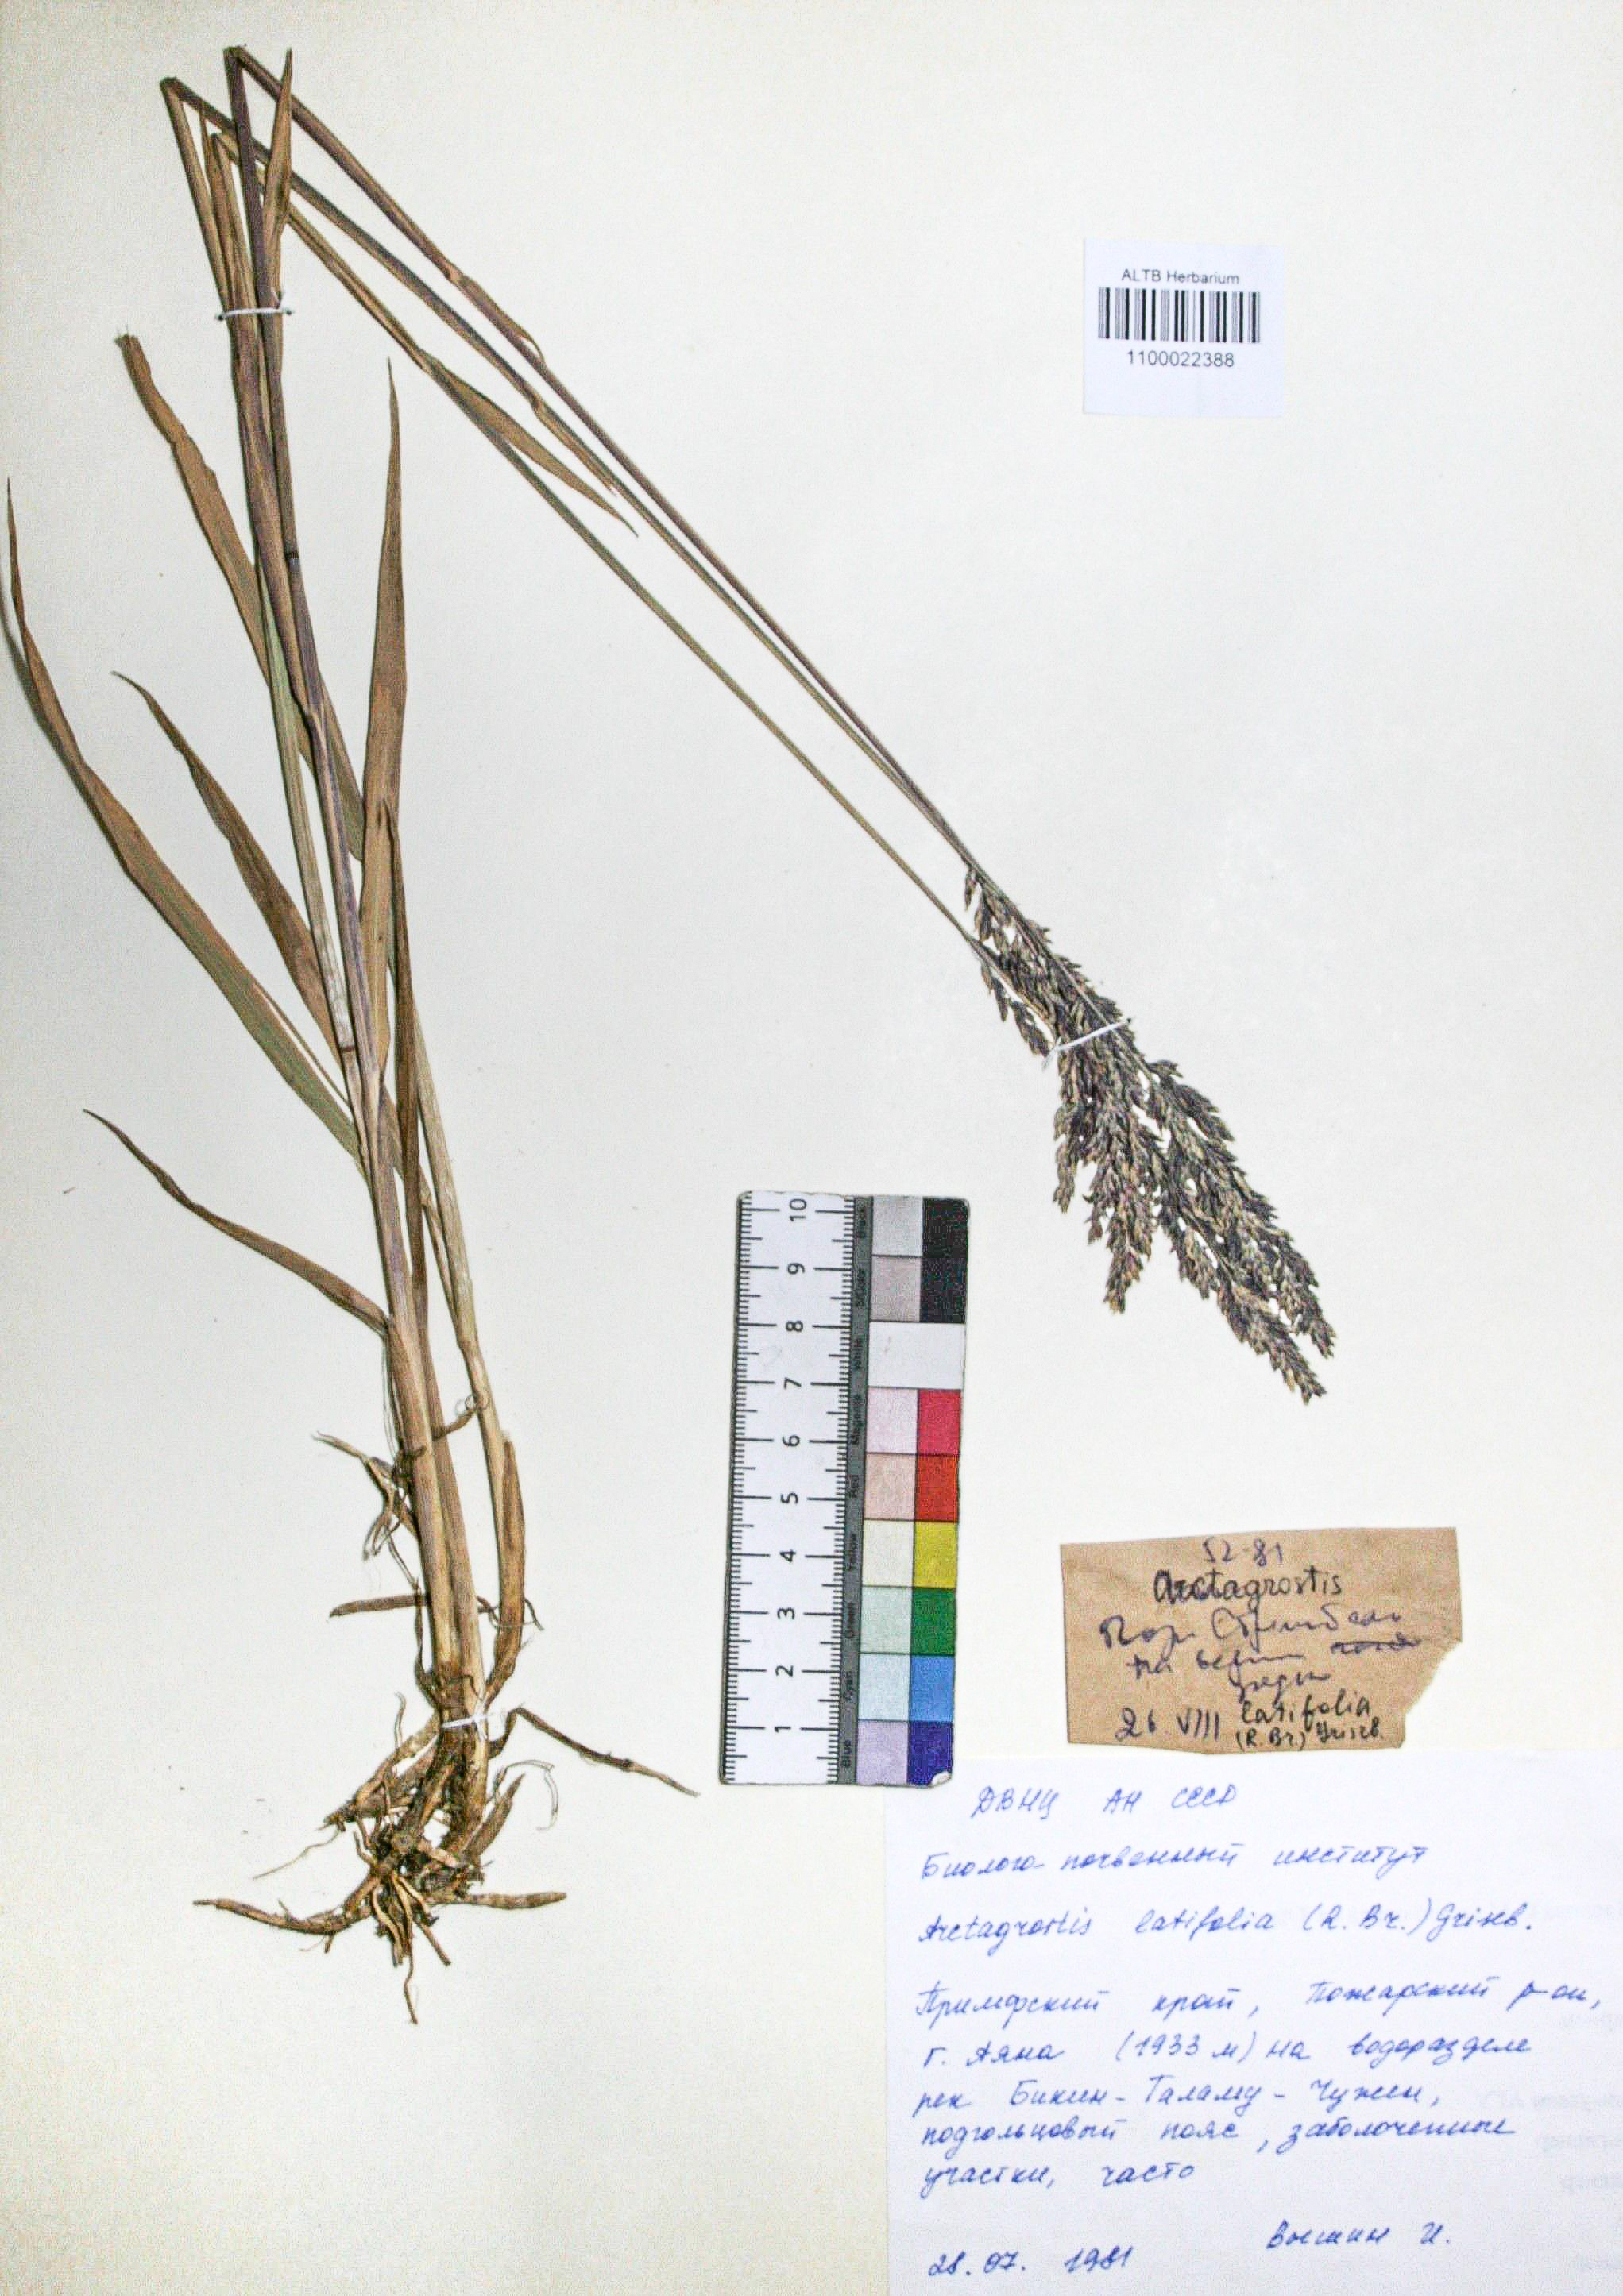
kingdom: Plantae
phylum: Tracheophyta
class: Liliopsida
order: Poales
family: Poaceae
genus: Arctagrostis
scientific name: Arctagrostis latifolia
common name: Arctic grass
